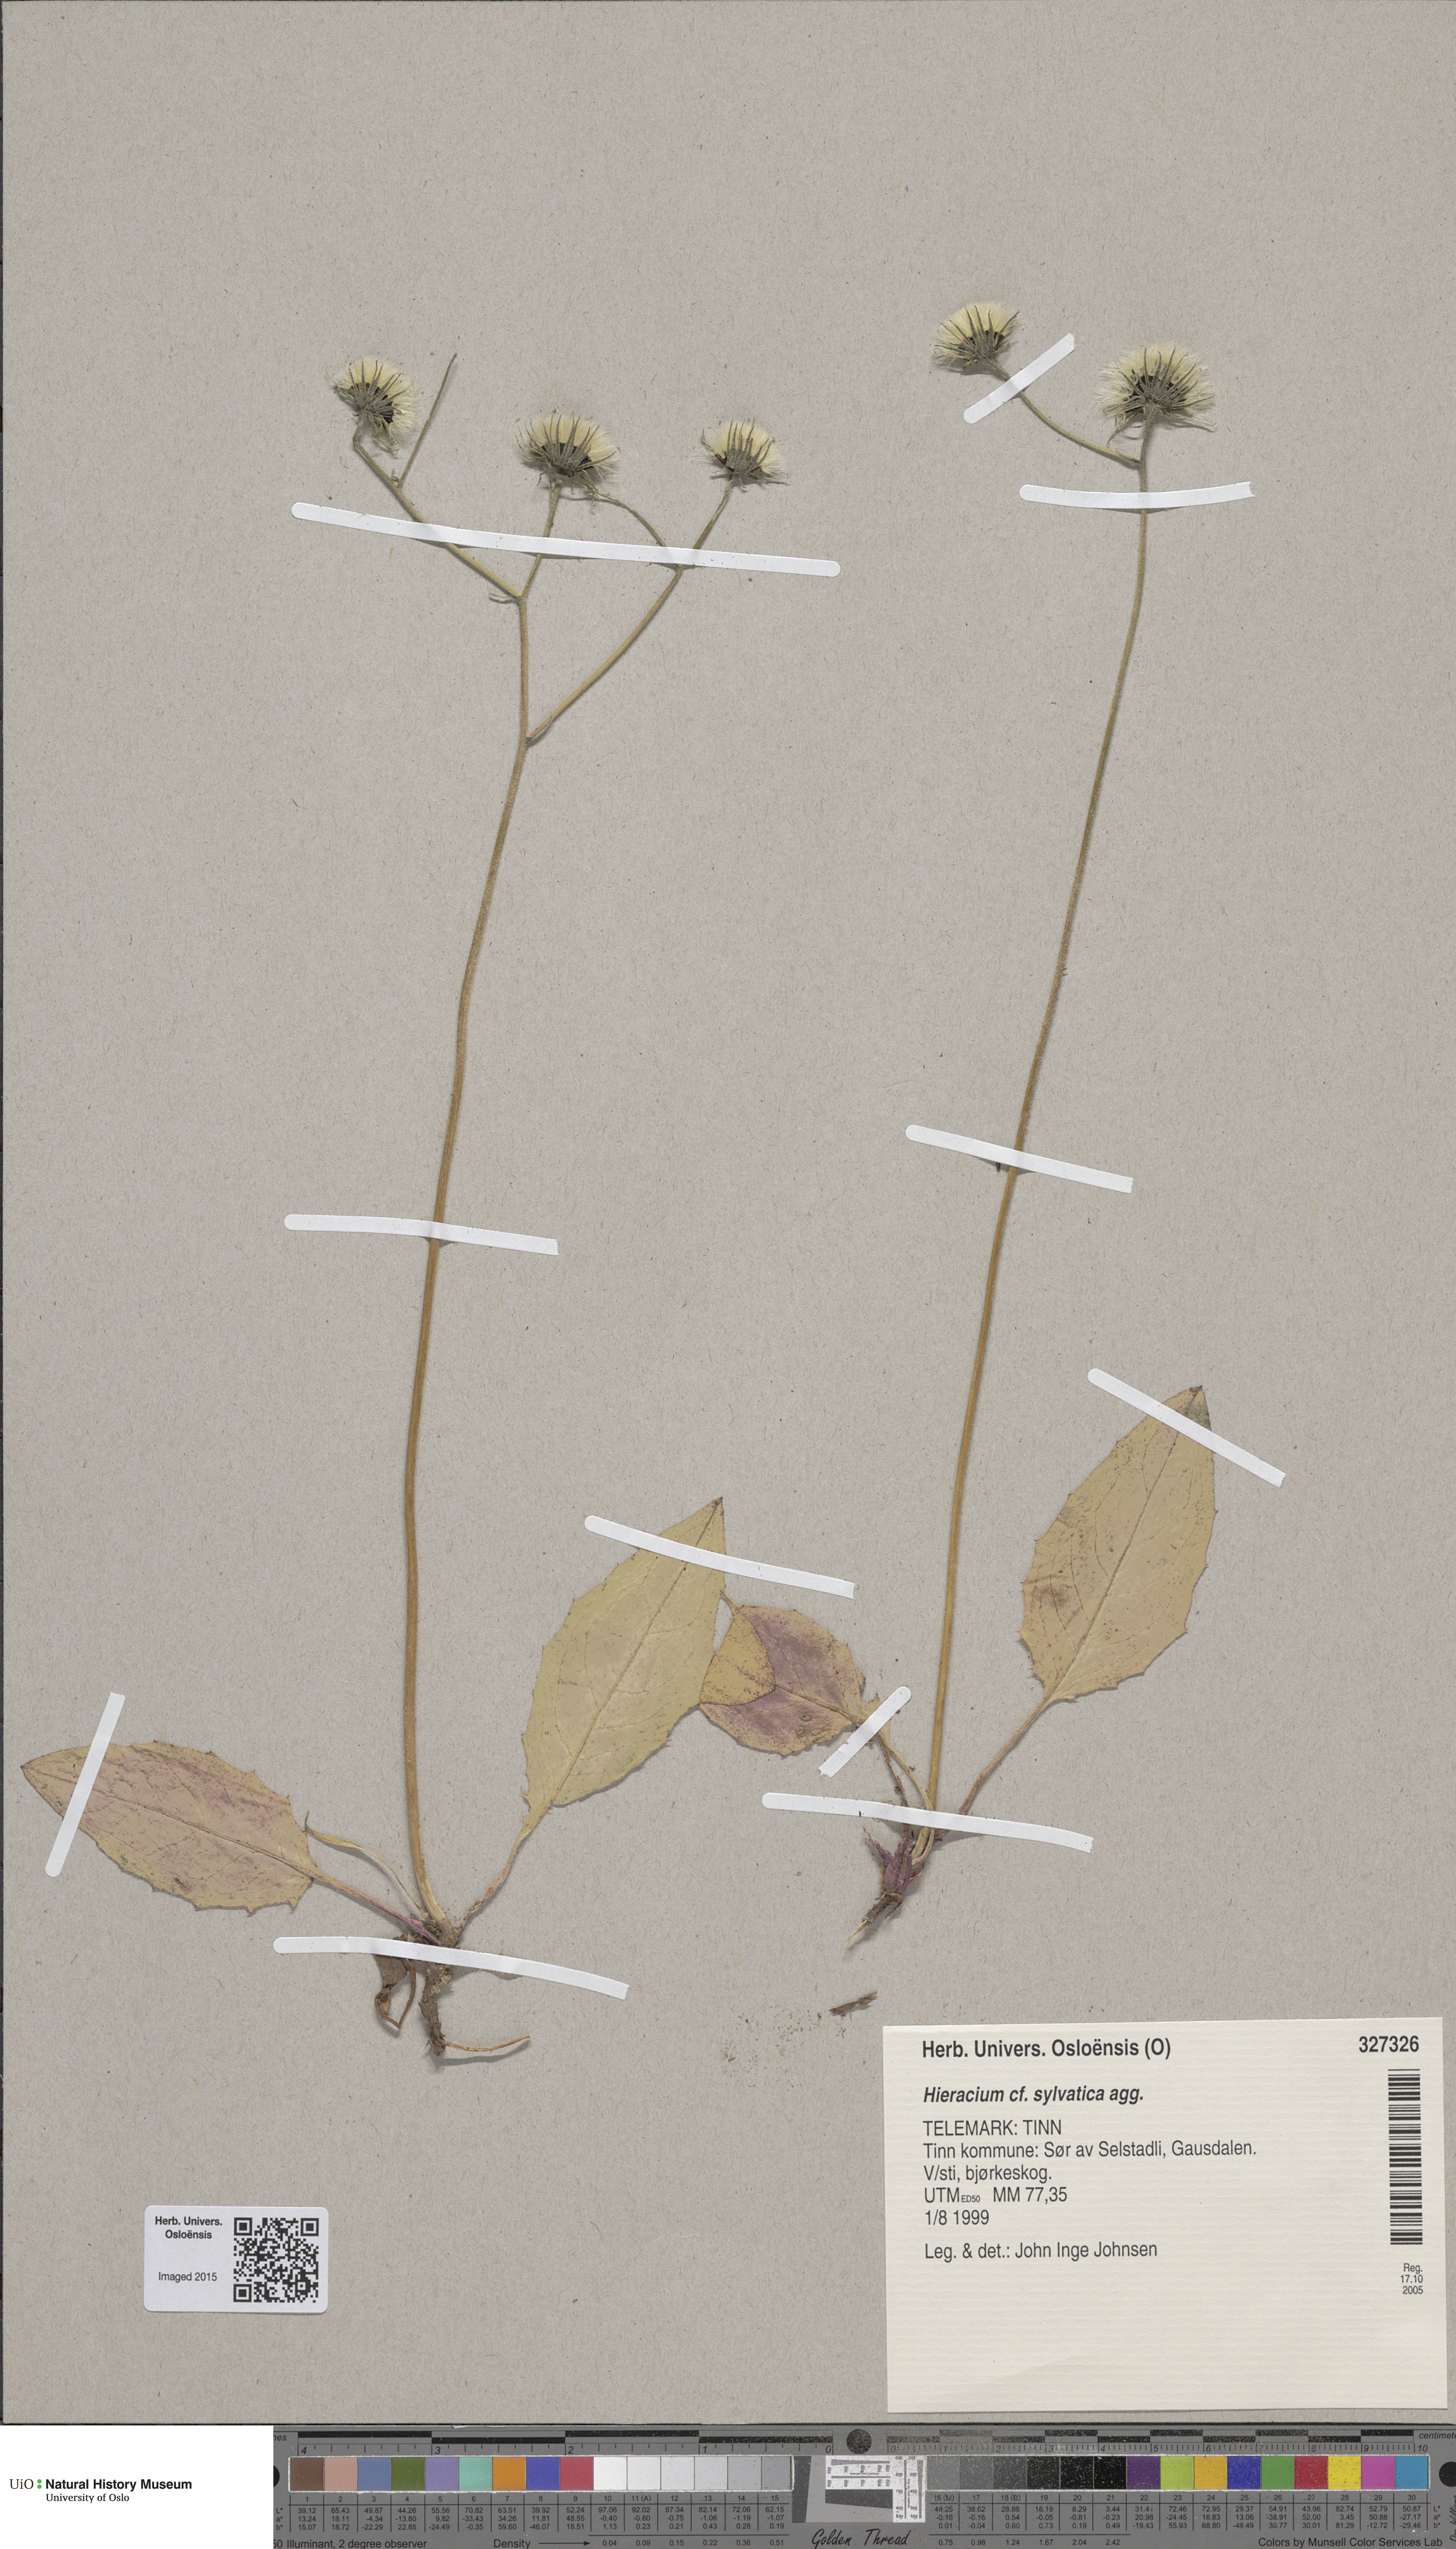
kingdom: Plantae
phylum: Tracheophyta
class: Magnoliopsida
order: Asterales
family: Asteraceae
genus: Hieracium
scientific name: Hieracium
